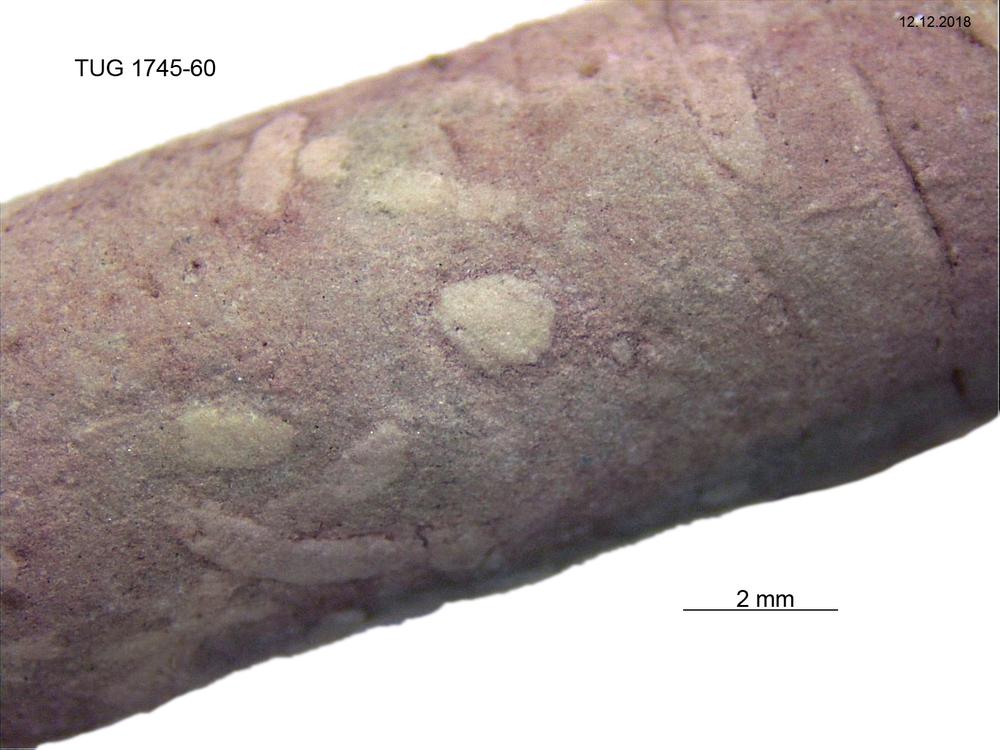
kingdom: Animalia
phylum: Mollusca
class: Cephalopoda
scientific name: Cephalopoda
